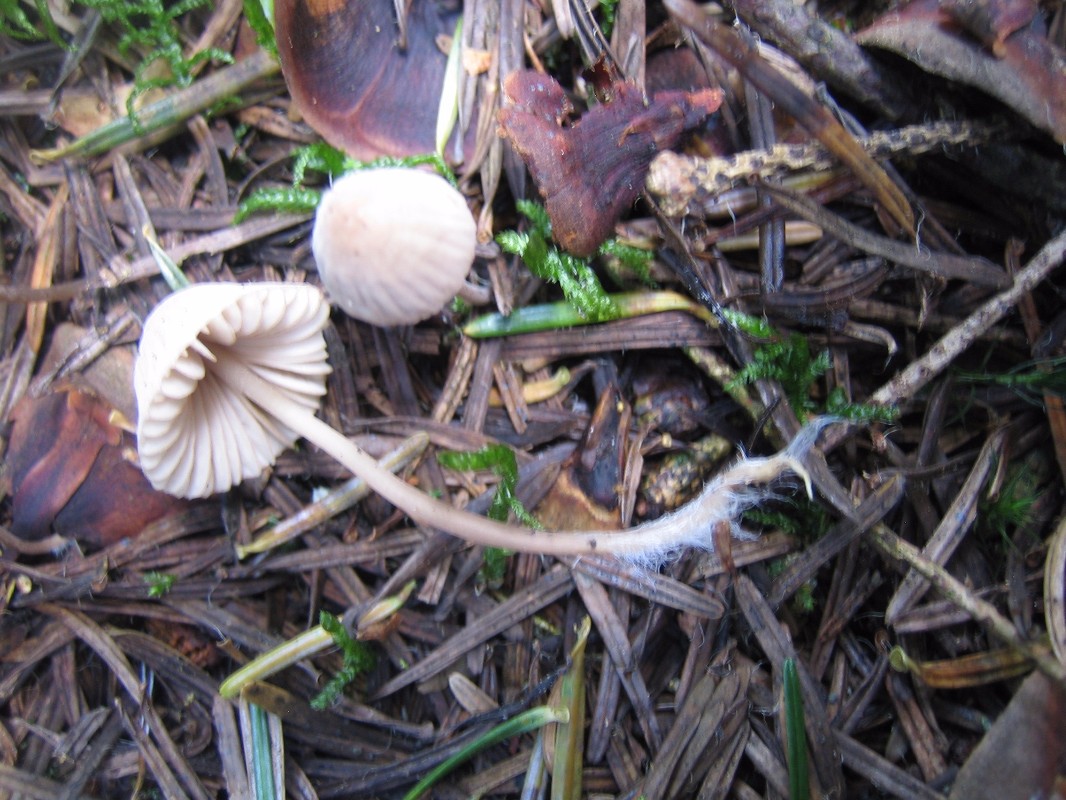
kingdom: Fungi
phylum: Basidiomycota
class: Agaricomycetes
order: Agaricales
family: Mycenaceae
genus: Mycena
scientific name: Mycena
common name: huesvamp
